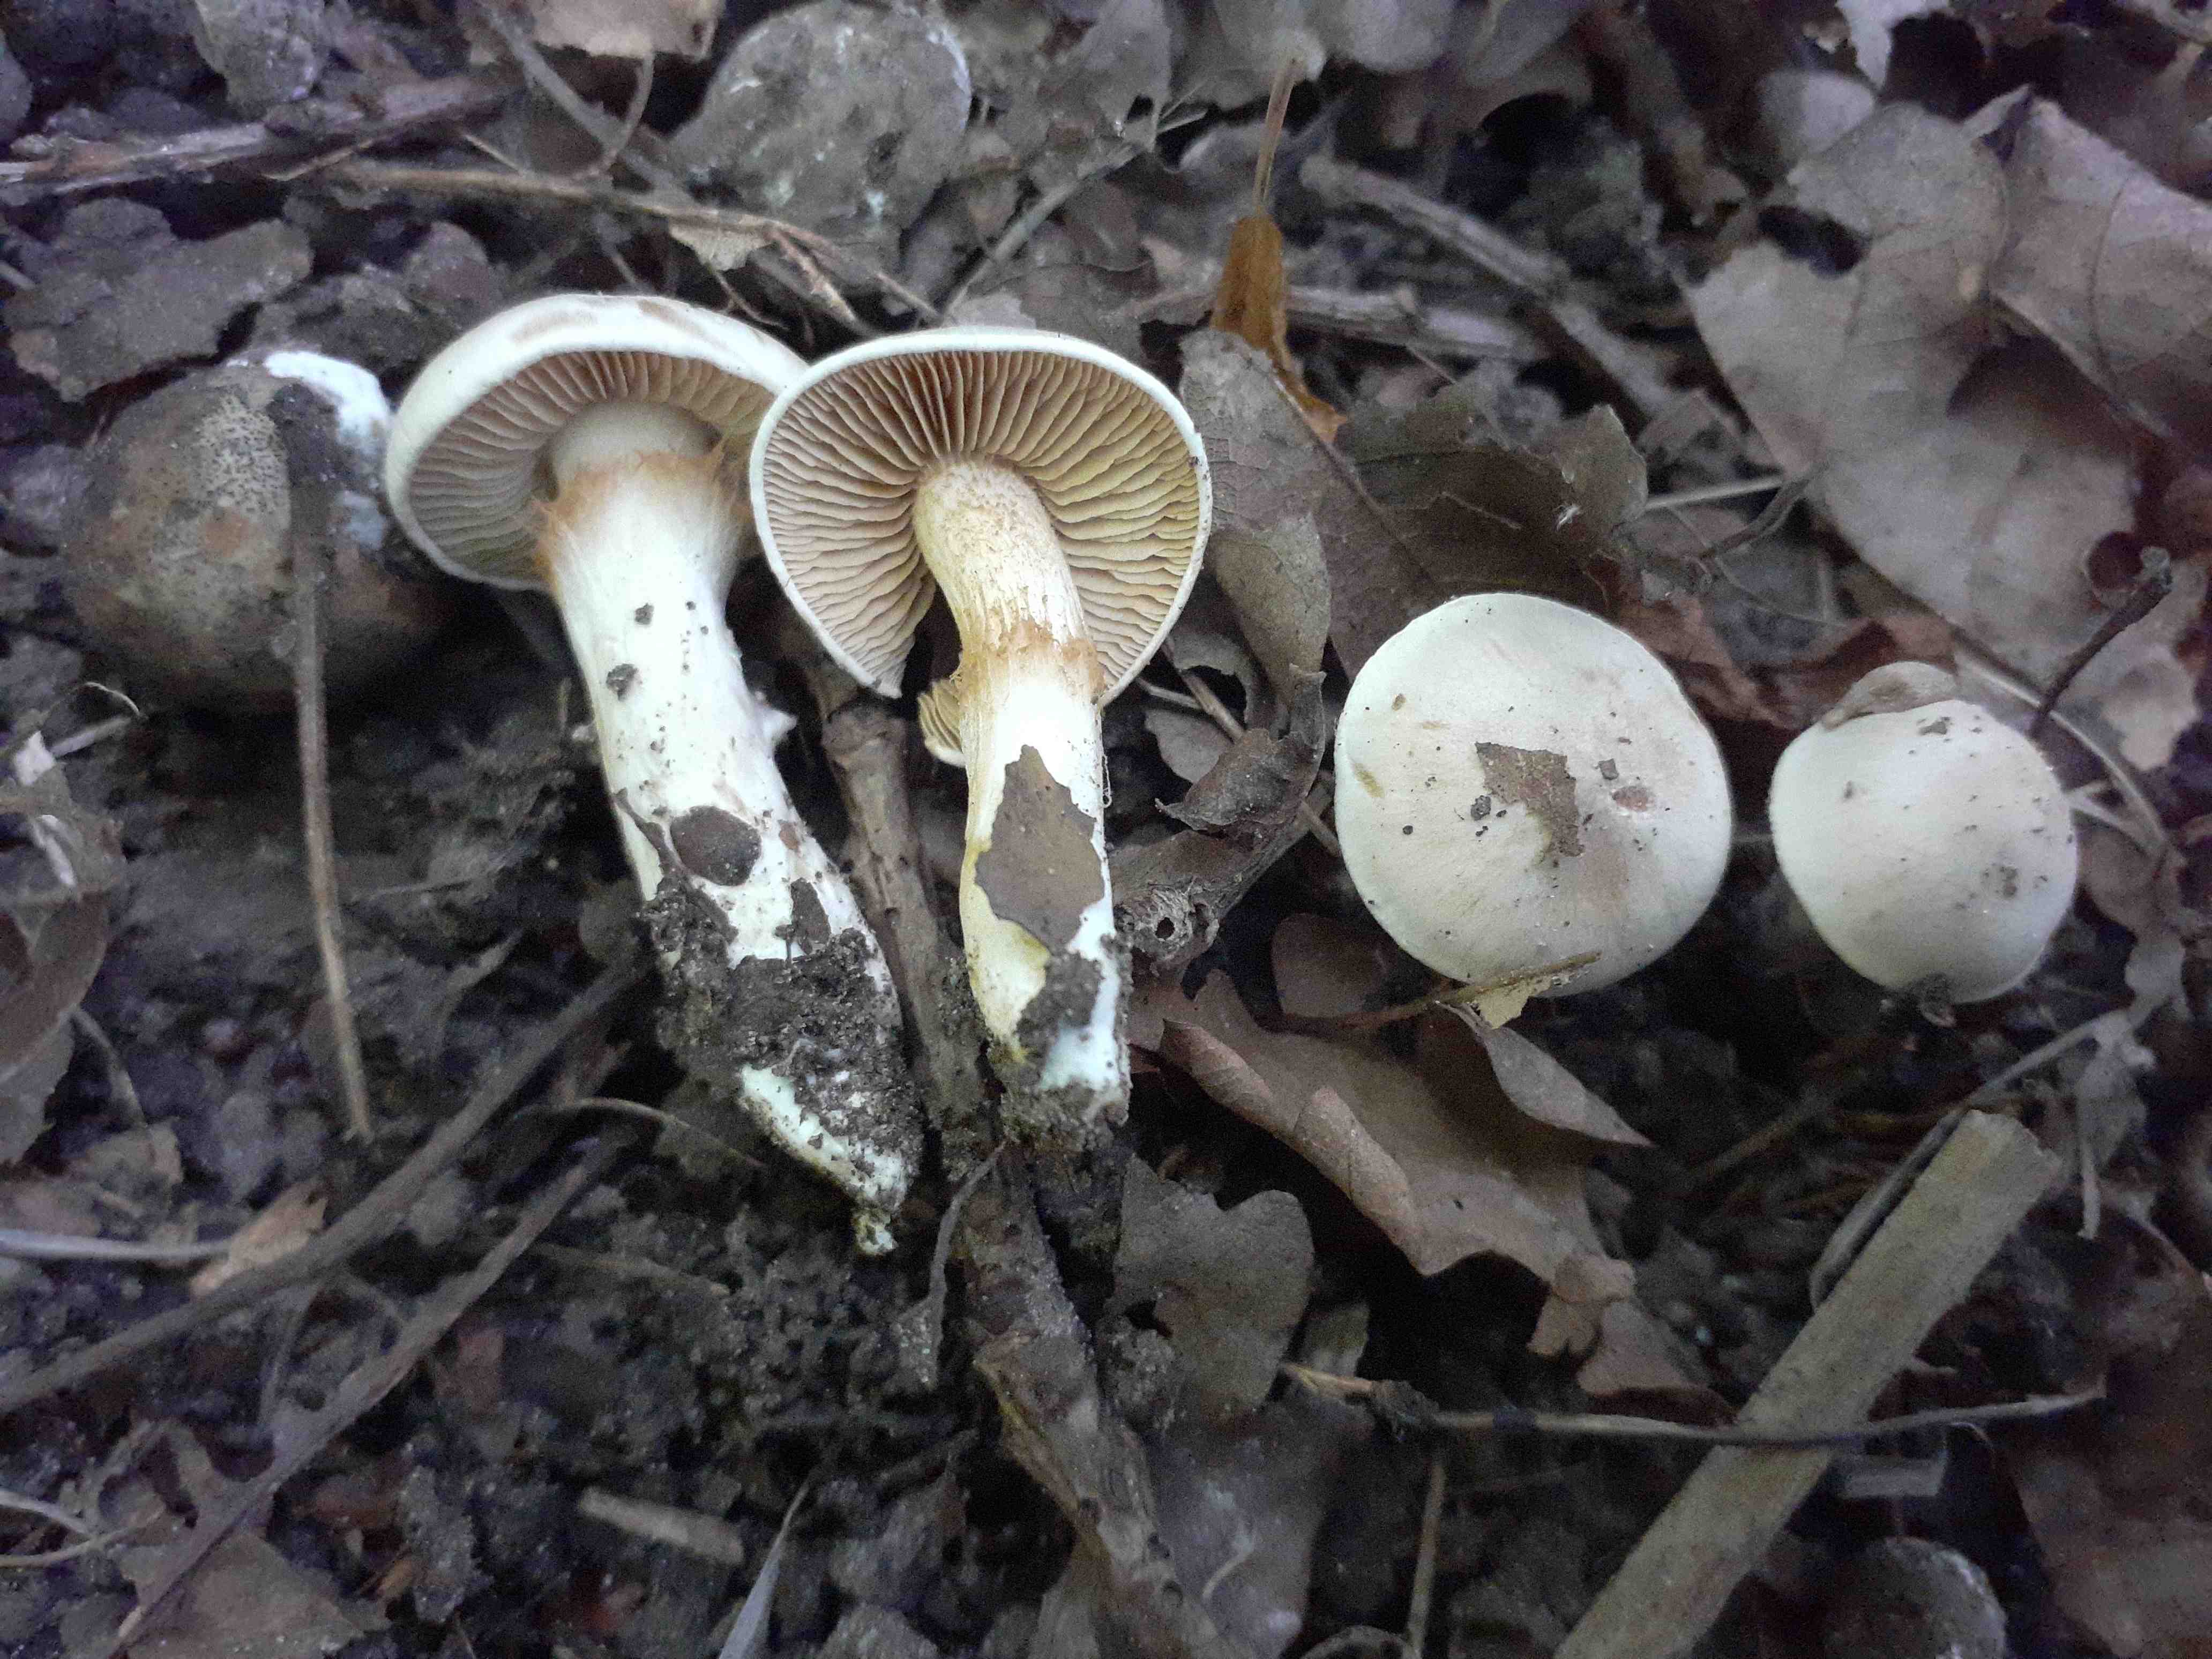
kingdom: Fungi
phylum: Basidiomycota
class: Agaricomycetes
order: Agaricales
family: Cortinariaceae
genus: Thaxterogaster
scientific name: Thaxterogaster leucoluteolus
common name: isabella slørhat
